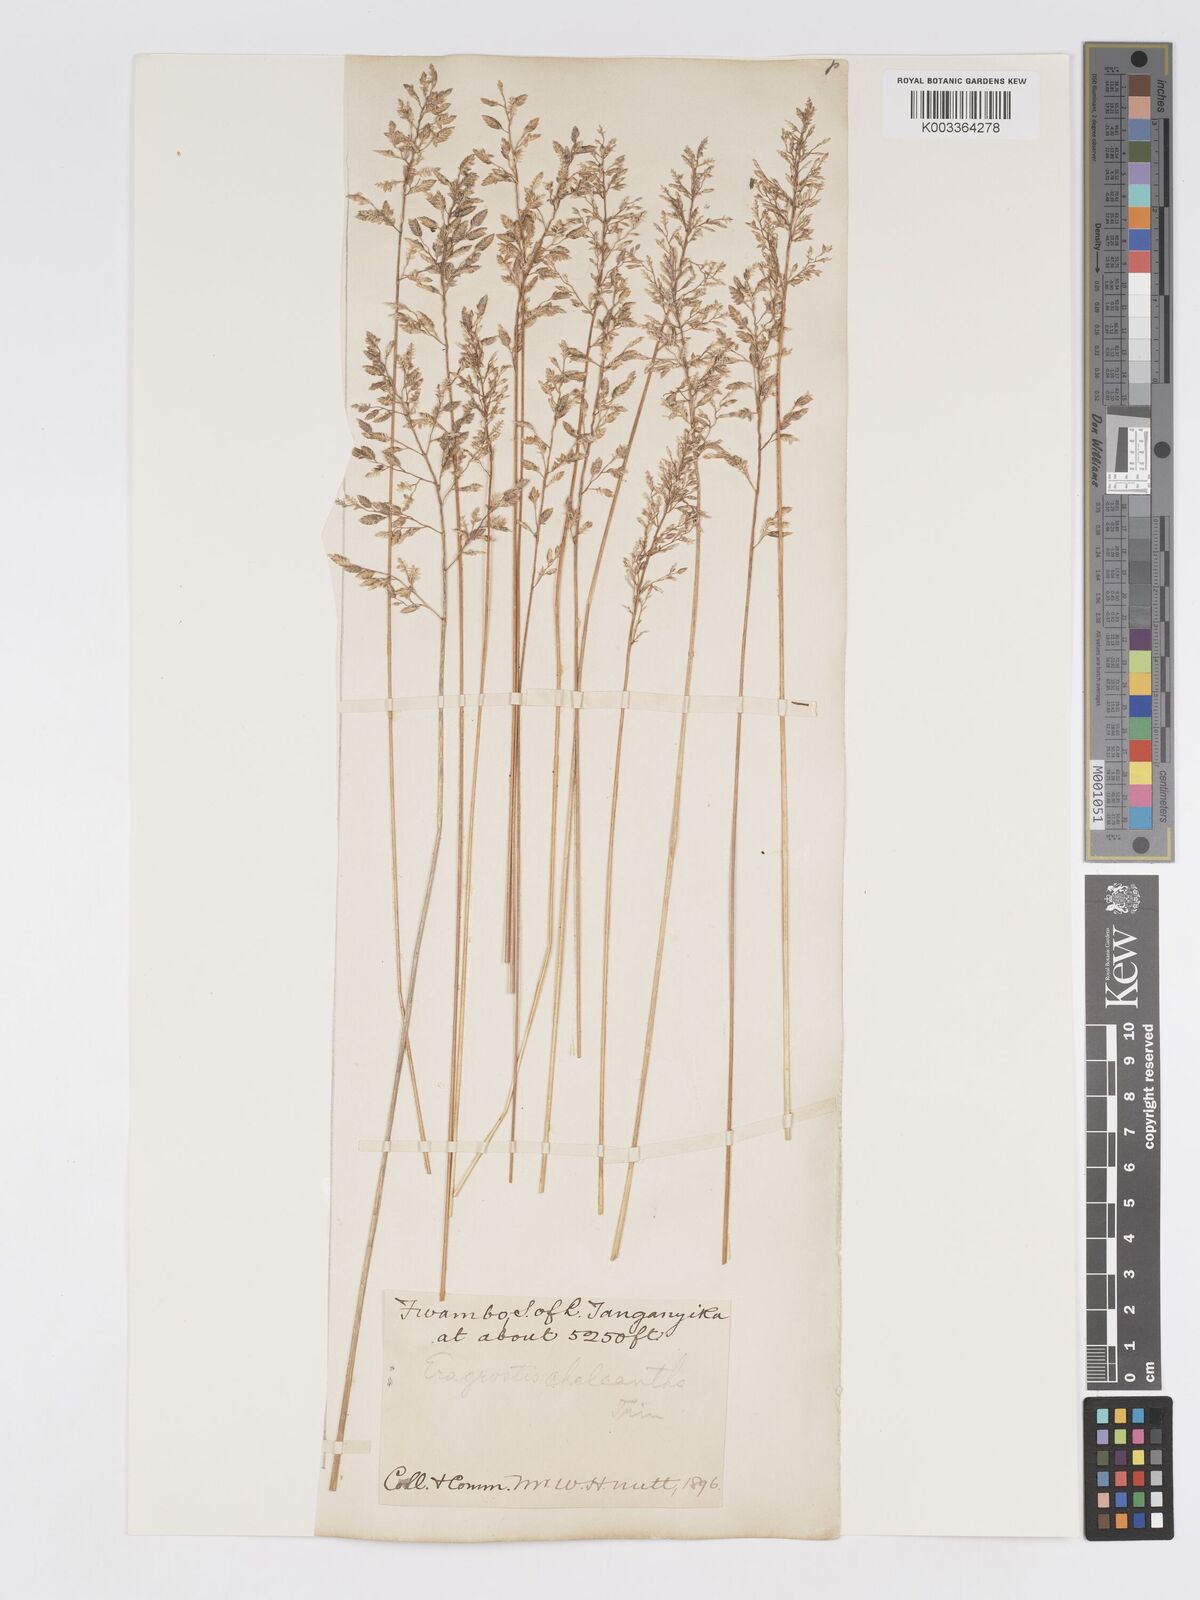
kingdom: Plantae
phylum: Tracheophyta
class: Liliopsida
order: Poales
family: Poaceae
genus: Eragrostis
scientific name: Eragrostis racemosa
